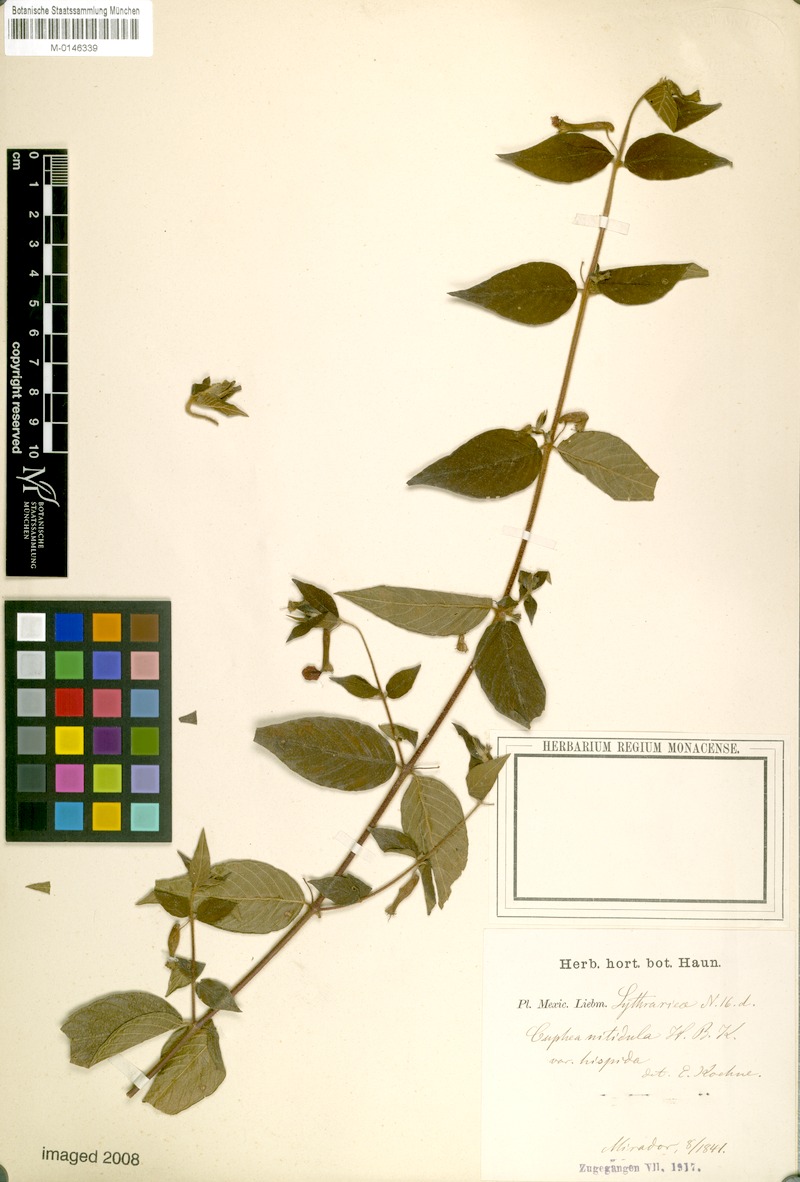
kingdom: Plantae
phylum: Tracheophyta
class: Magnoliopsida
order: Myrtales
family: Lythraceae
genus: Cuphea
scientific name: Cuphea nitidula
